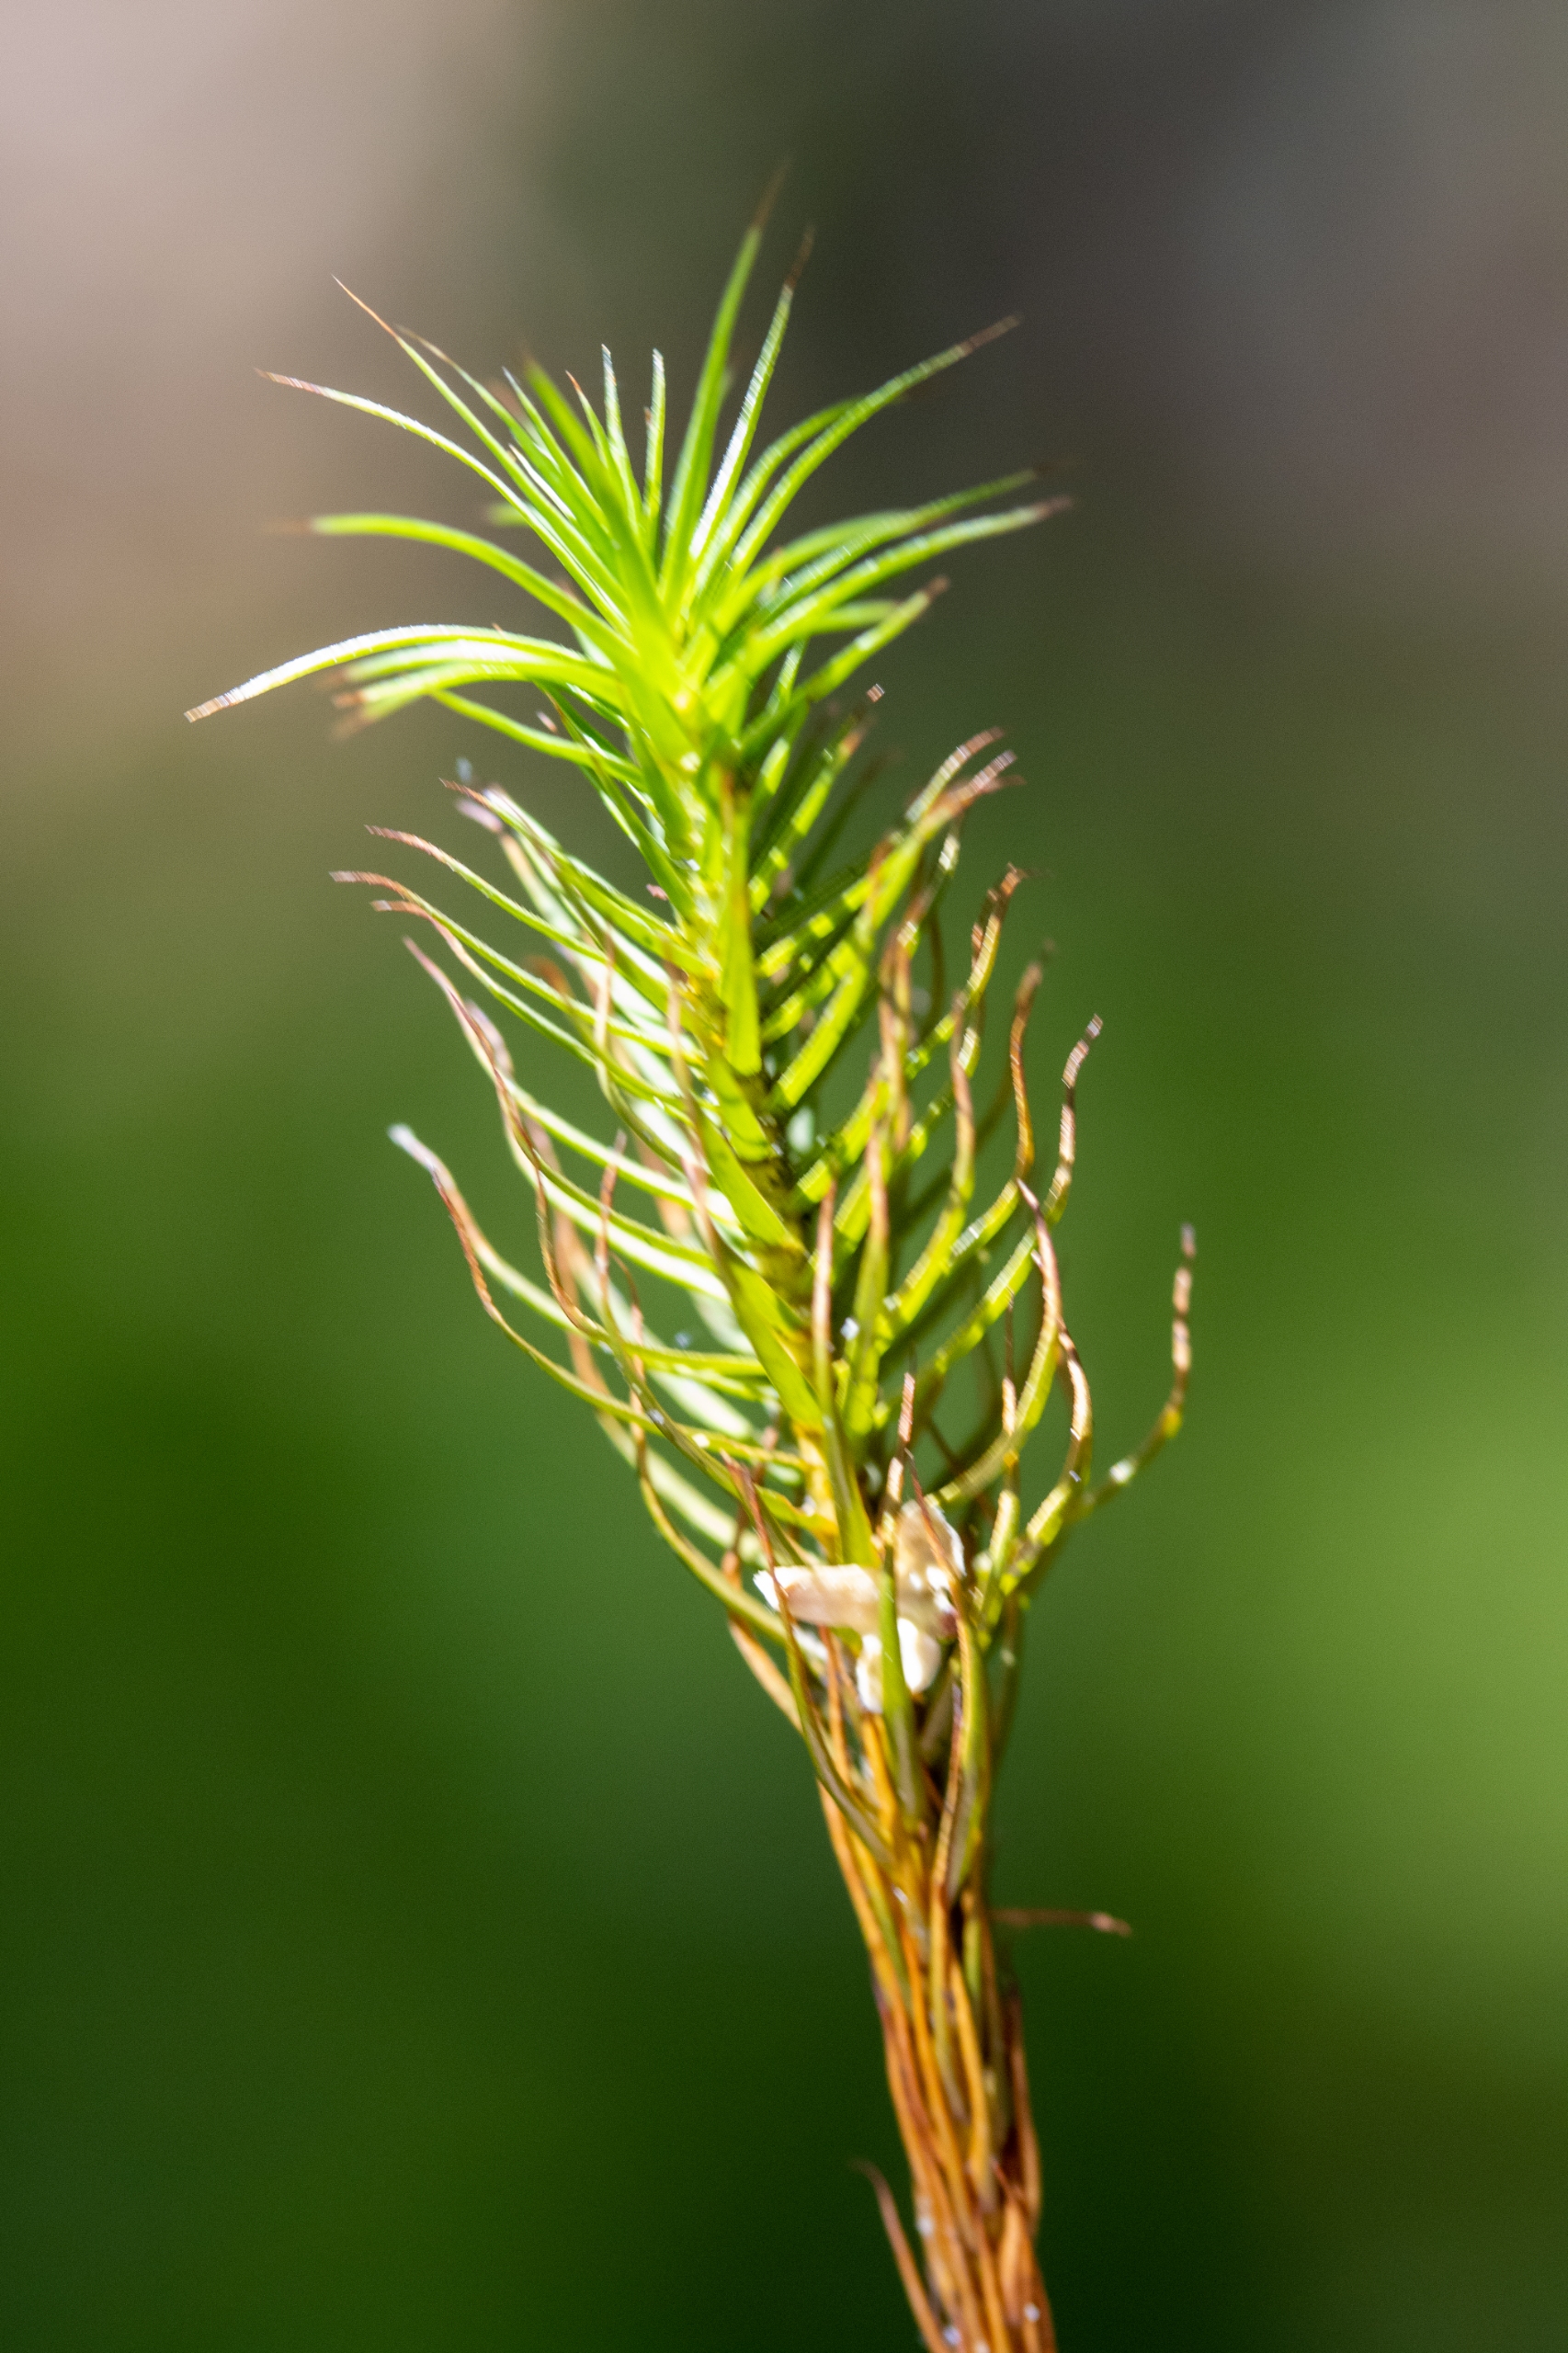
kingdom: Plantae
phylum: Bryophyta
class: Polytrichopsida
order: Polytrichales
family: Polytrichaceae
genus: Polytrichum
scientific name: Polytrichum commune
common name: Almindelig jomfruhår
